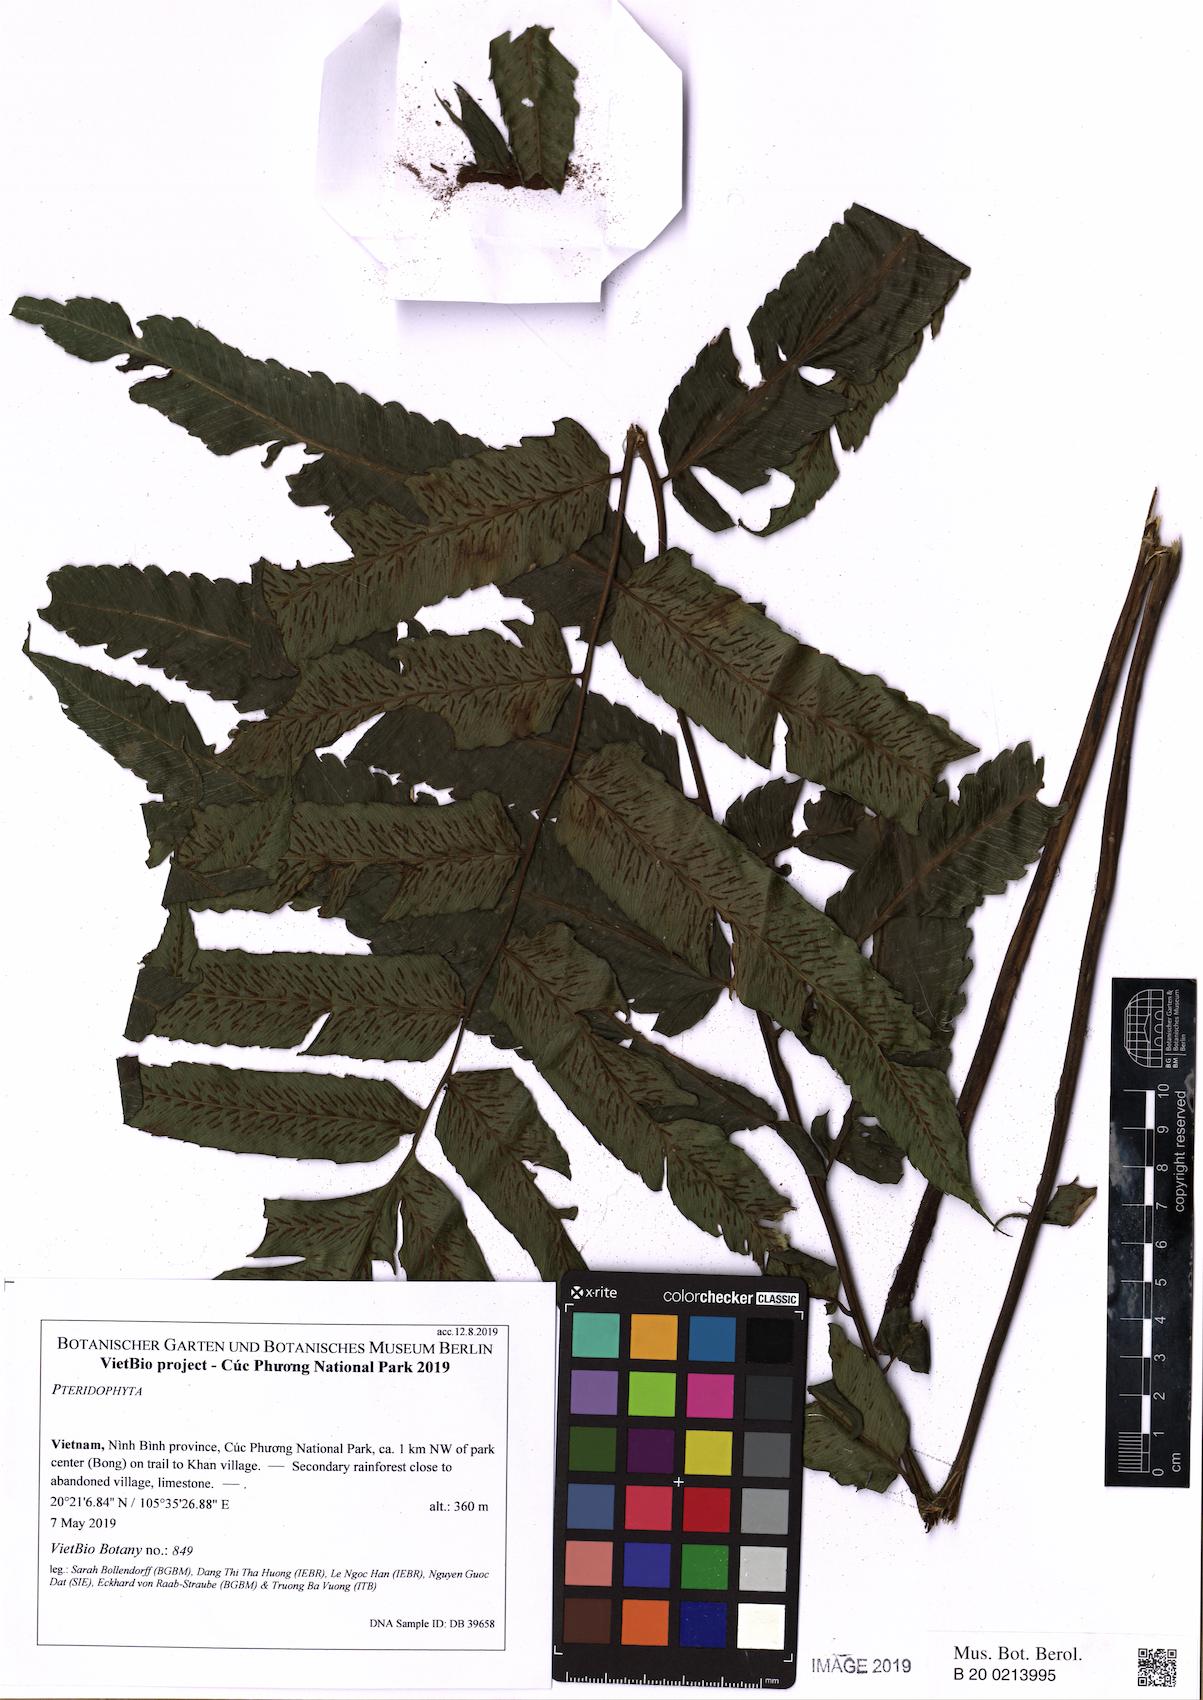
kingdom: Plantae
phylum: Tracheophyta
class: Polypodiopsida
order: Polypodiales
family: Athyriaceae
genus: Diplazium
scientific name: Diplazium megaphyllum
